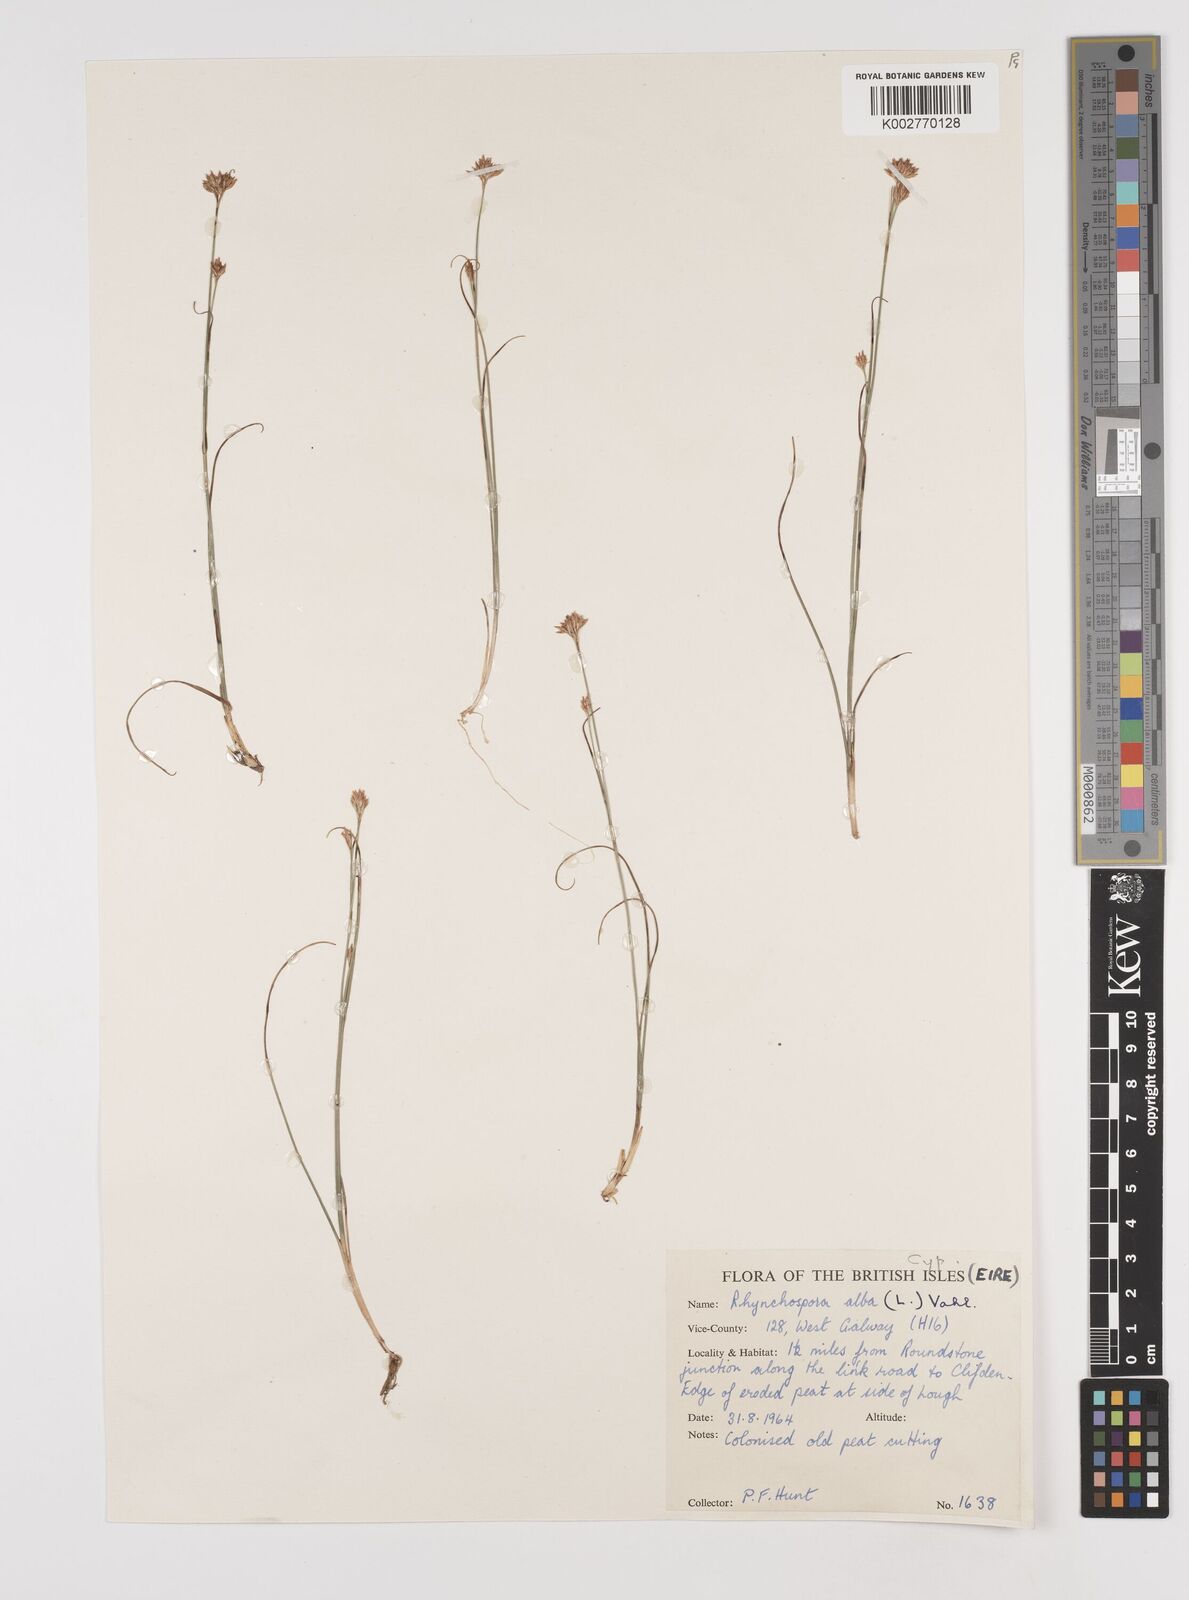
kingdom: Plantae
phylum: Tracheophyta
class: Liliopsida
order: Poales
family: Cyperaceae
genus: Rhynchospora
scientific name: Rhynchospora alba
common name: White beak-sedge
